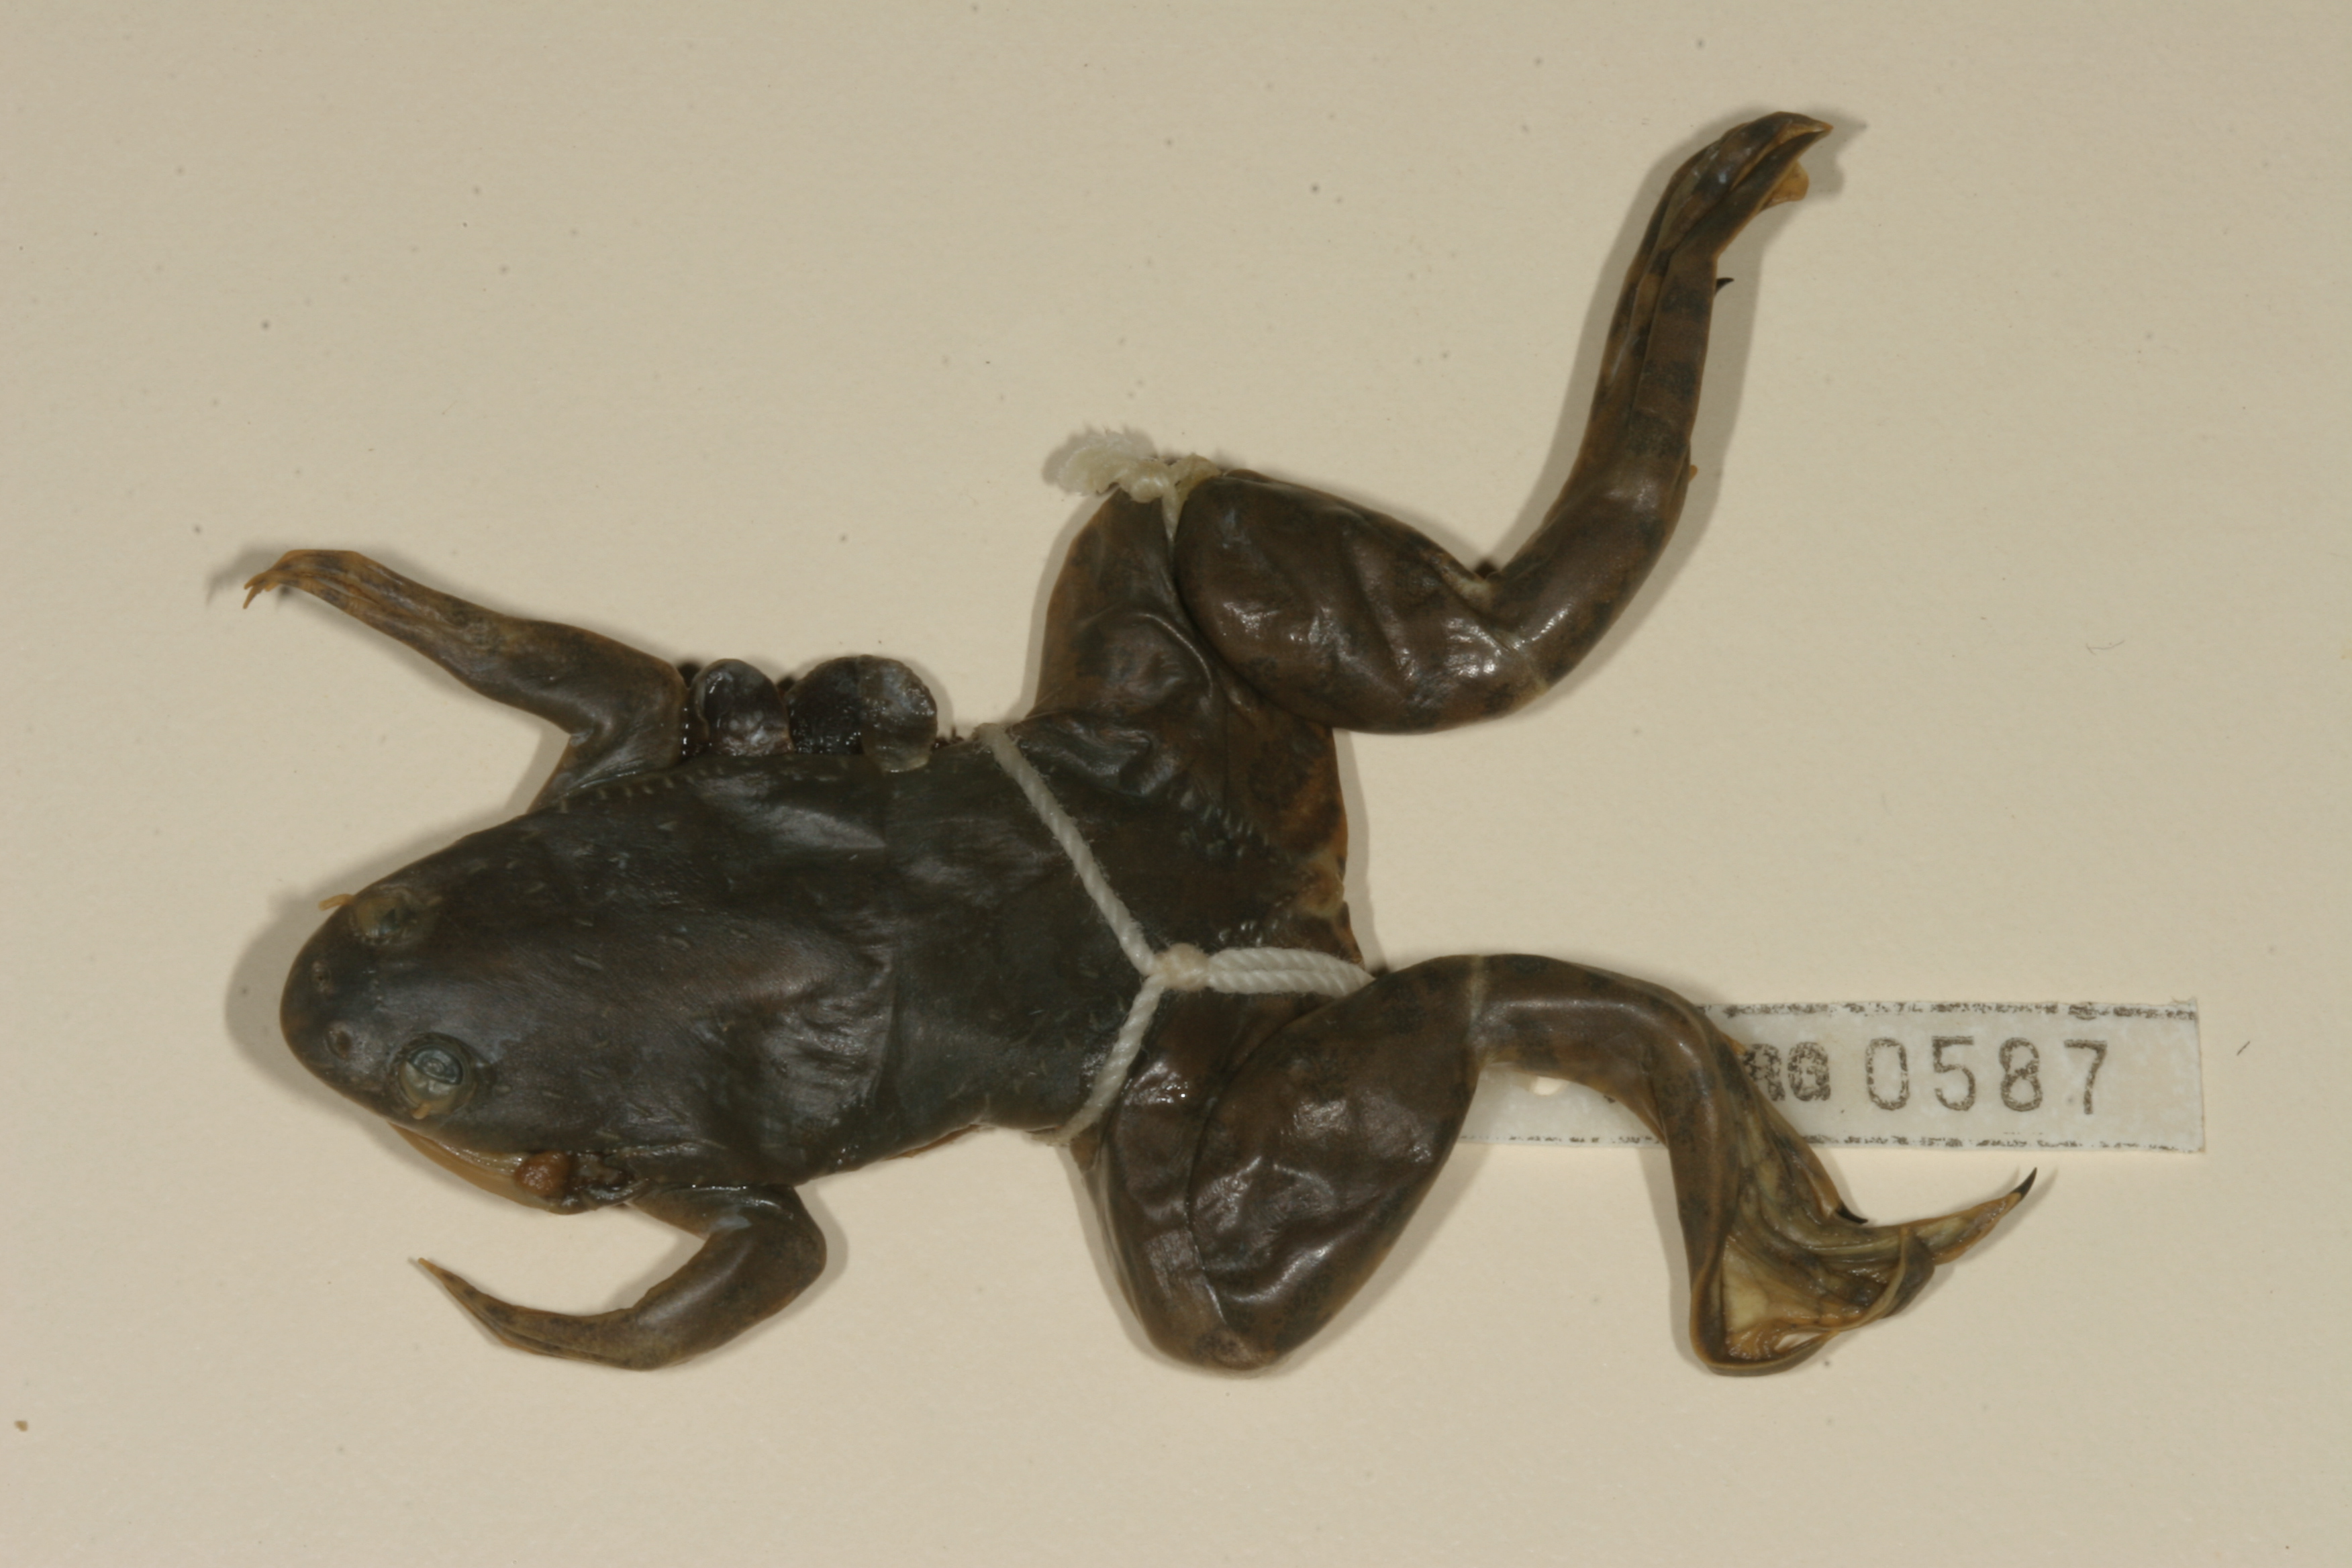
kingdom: Animalia
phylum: Chordata
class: Amphibia
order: Anura
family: Pipidae
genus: Xenopus
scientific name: Xenopus muelleri
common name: Muller's clawed frog
